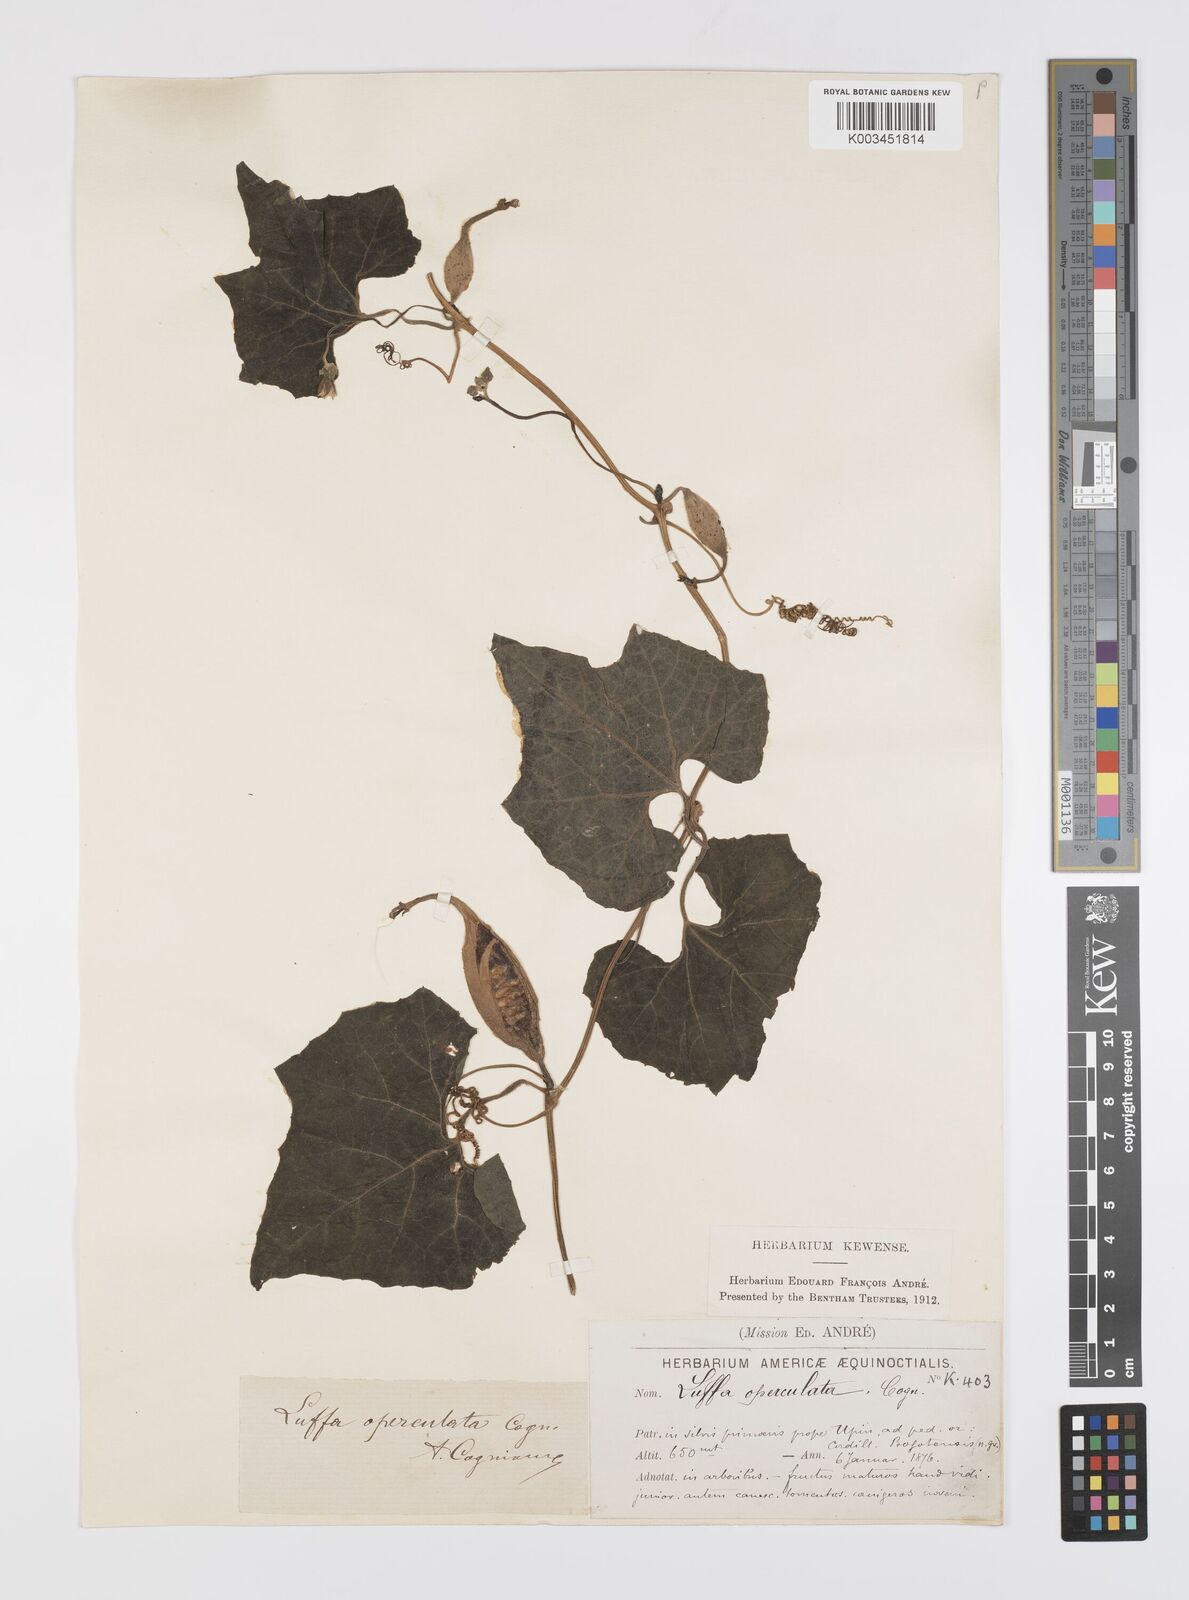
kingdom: Plantae
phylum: Tracheophyta
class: Magnoliopsida
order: Cucurbitales
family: Cucurbitaceae
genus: Luffa
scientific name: Luffa operculata
